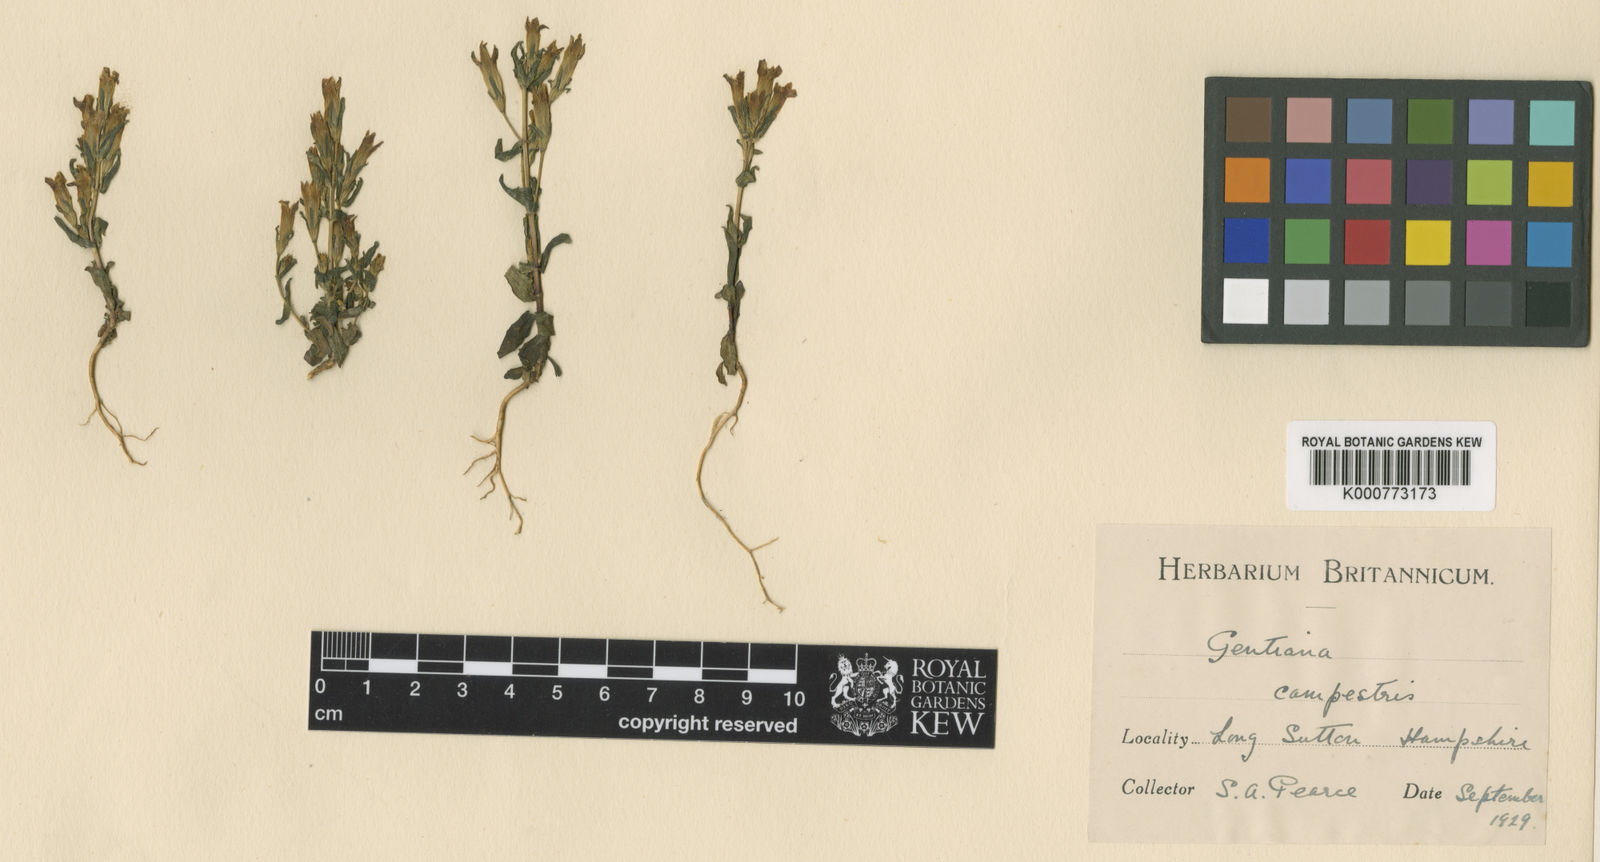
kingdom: Plantae
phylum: Tracheophyta
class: Magnoliopsida
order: Gentianales
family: Gentianaceae
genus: Gentianella
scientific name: Gentianella
